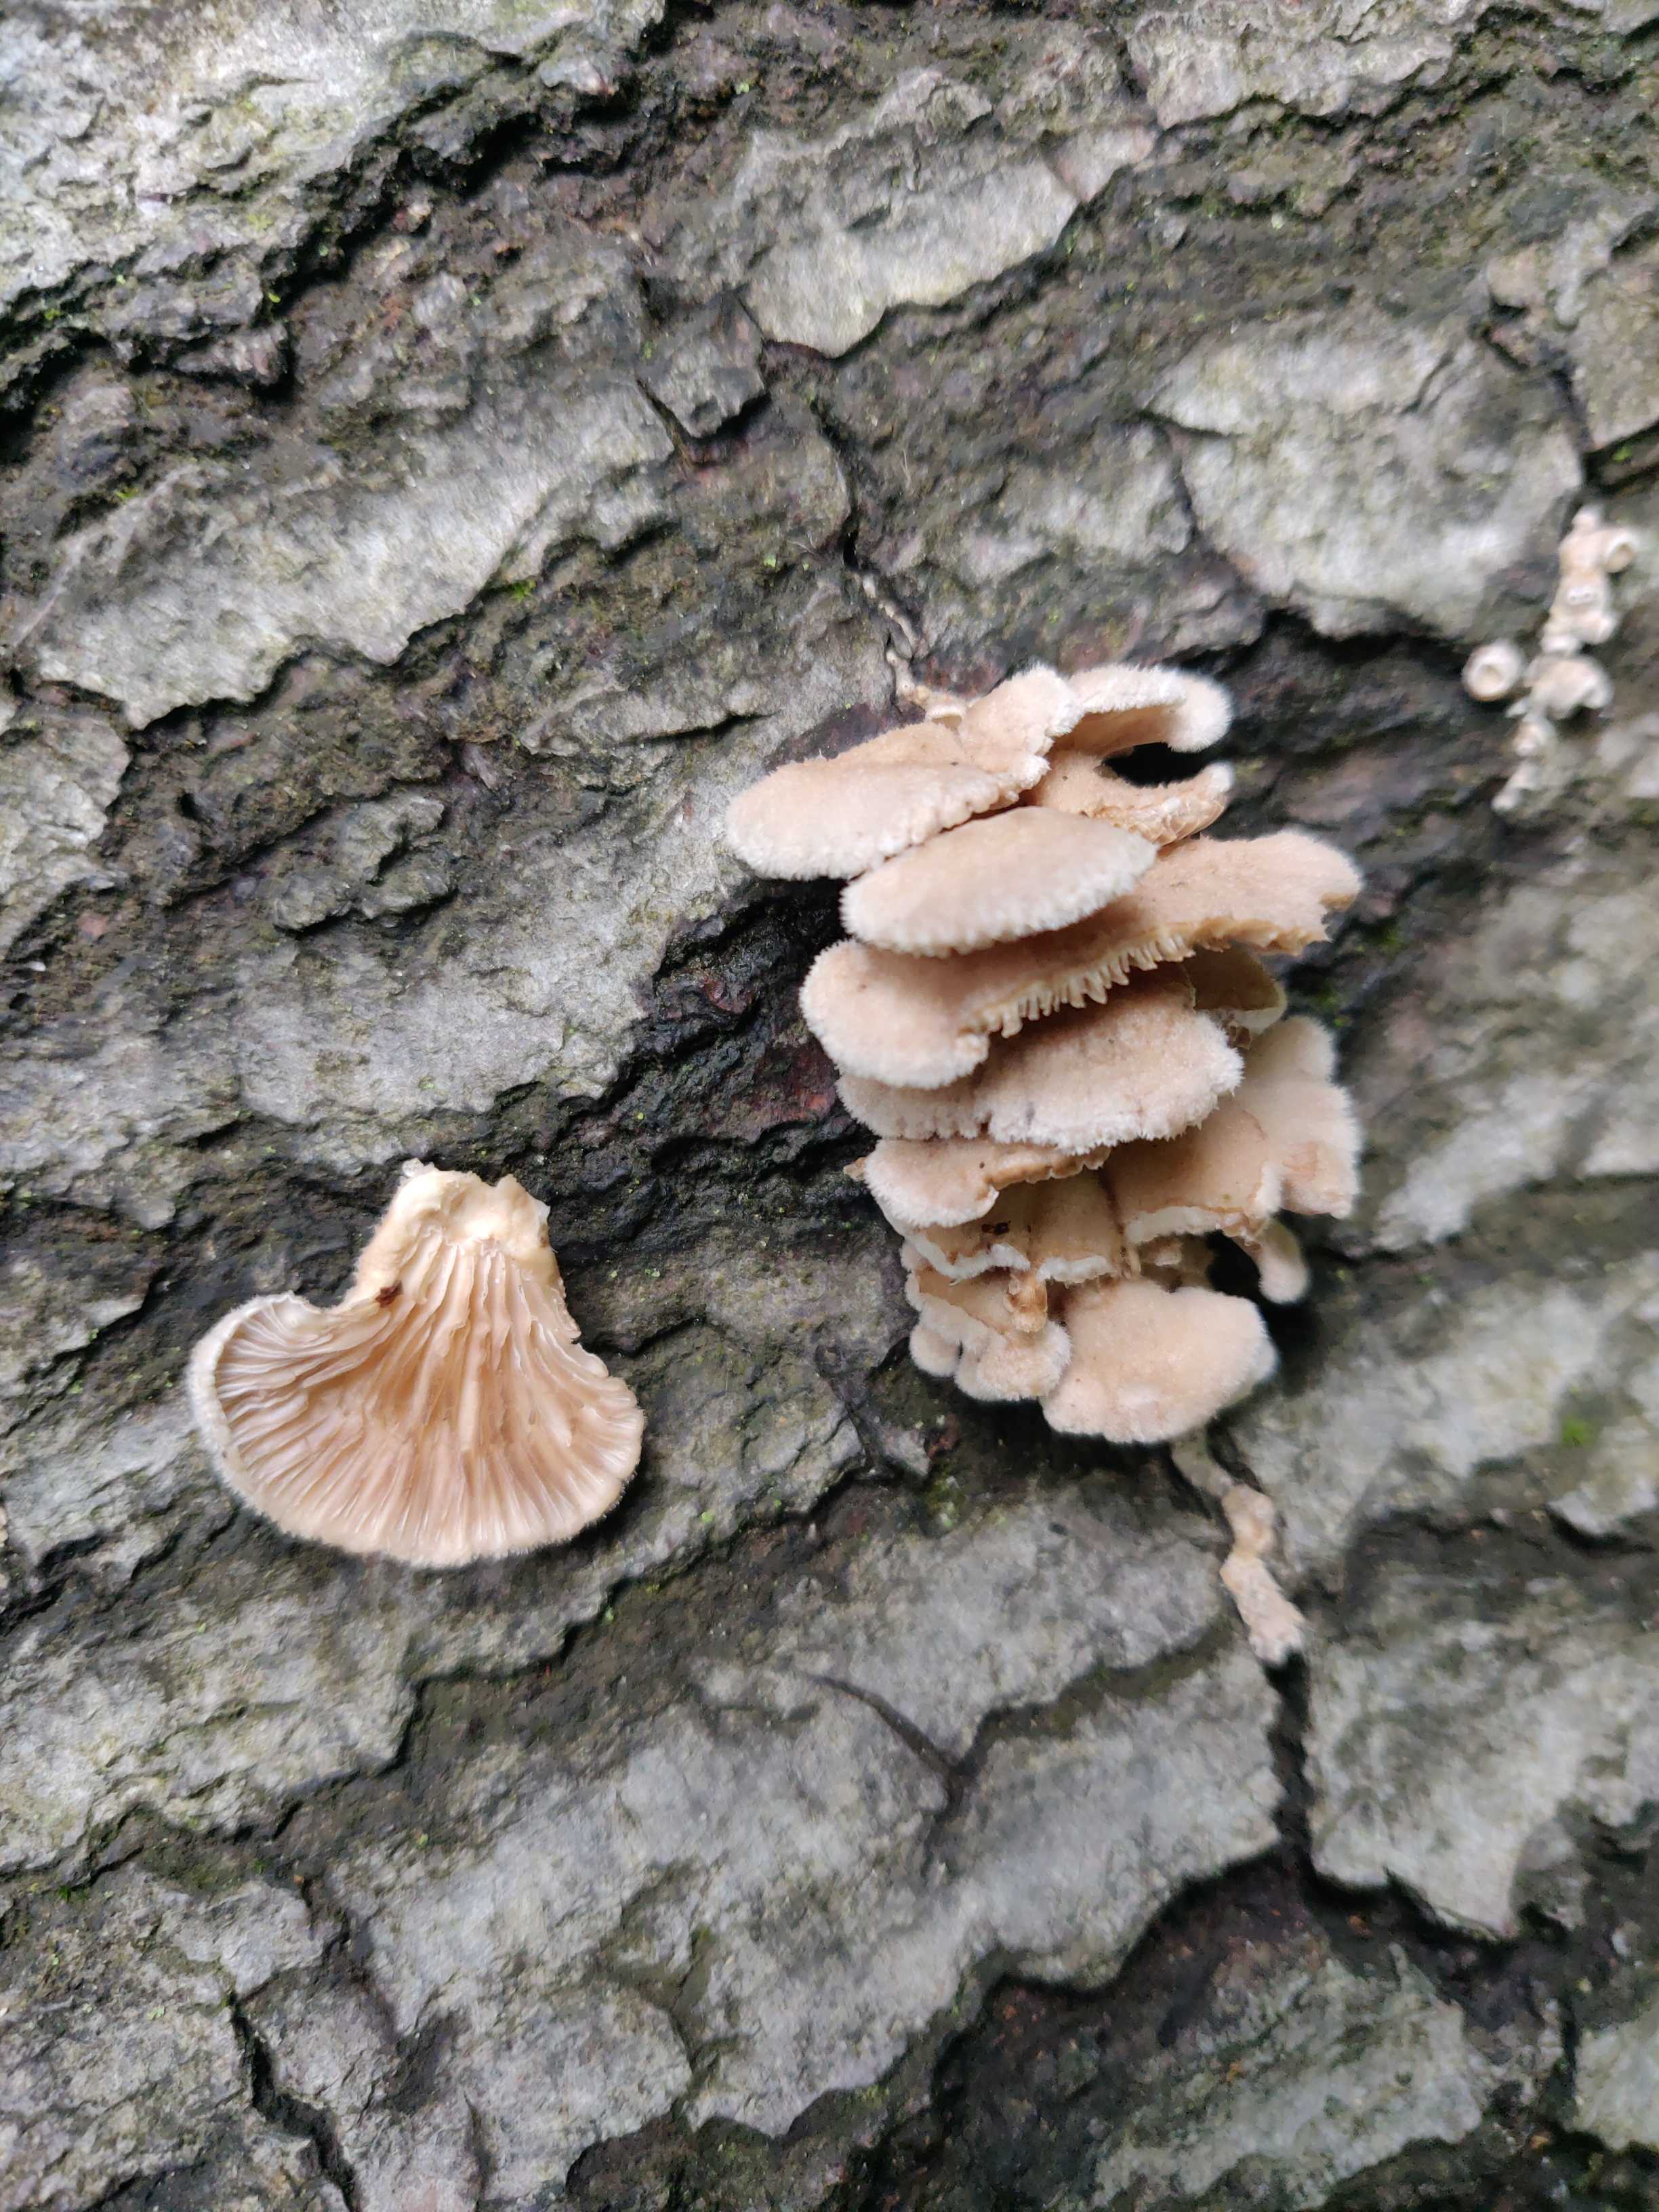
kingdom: Fungi
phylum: Basidiomycota
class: Agaricomycetes
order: Agaricales
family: Schizophyllaceae
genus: Schizophyllum
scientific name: Schizophyllum commune
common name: kløvblad
